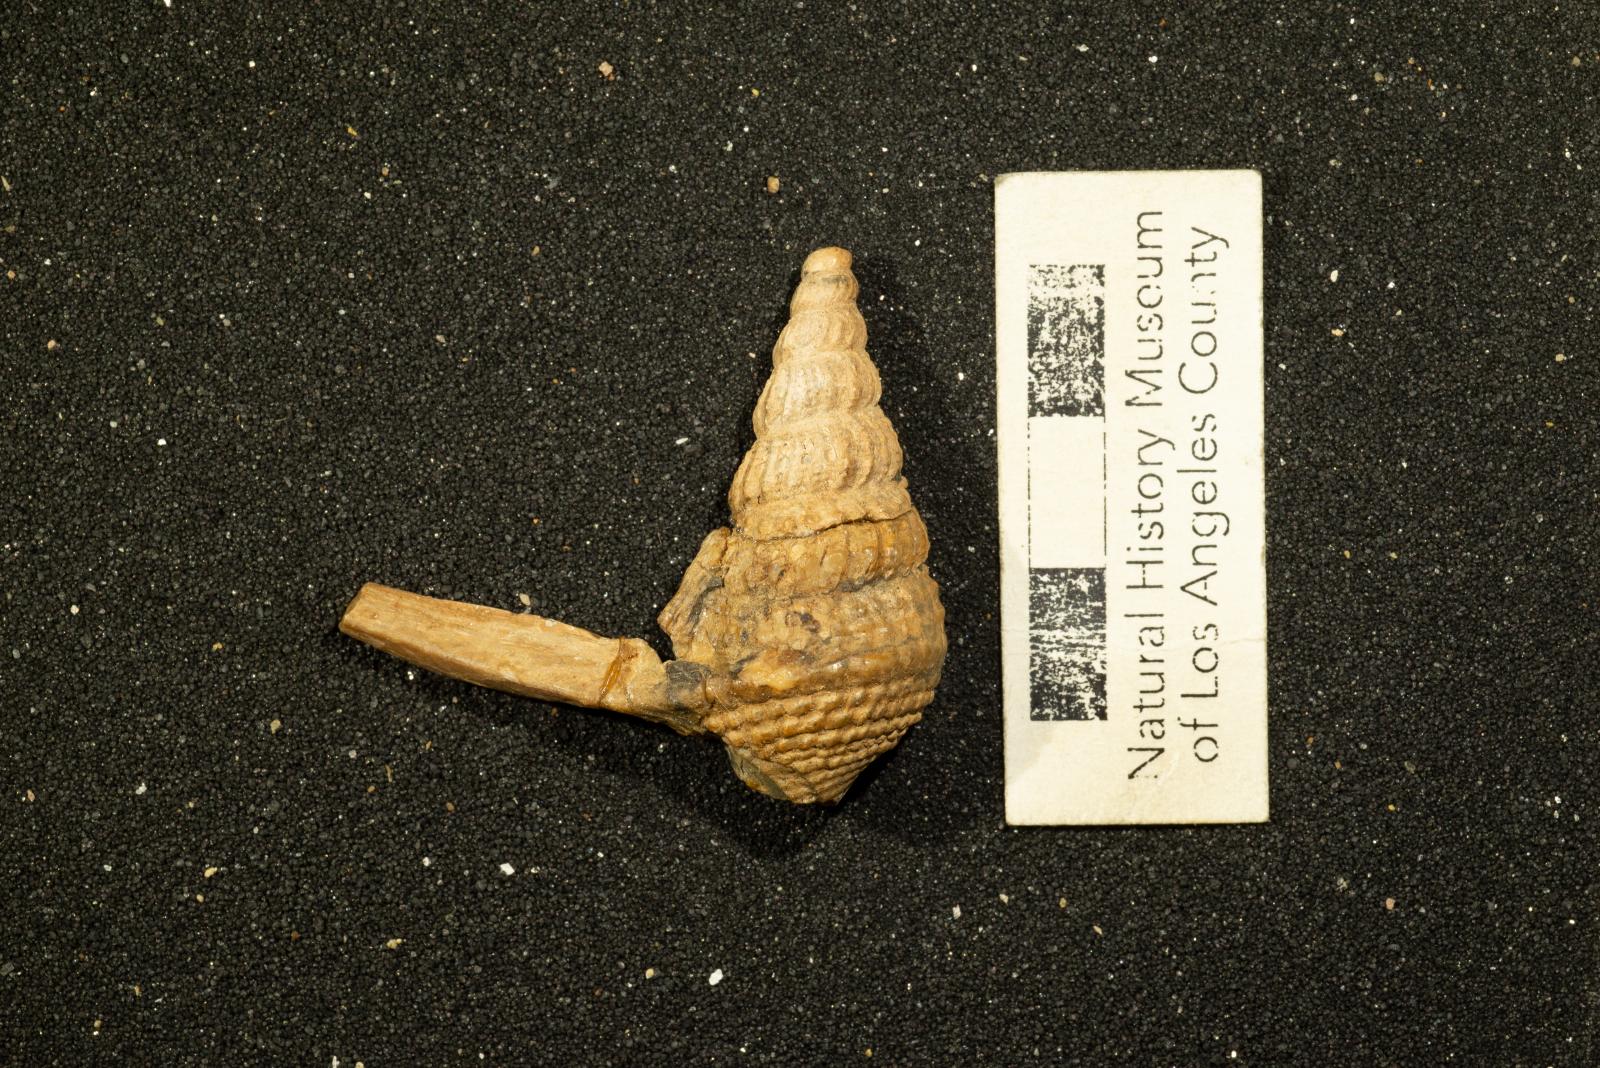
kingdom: Animalia
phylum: Mollusca
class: Gastropoda
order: Littorinimorpha
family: Aporrhaidae
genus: Helicaulax
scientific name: Helicaulax condoniana
